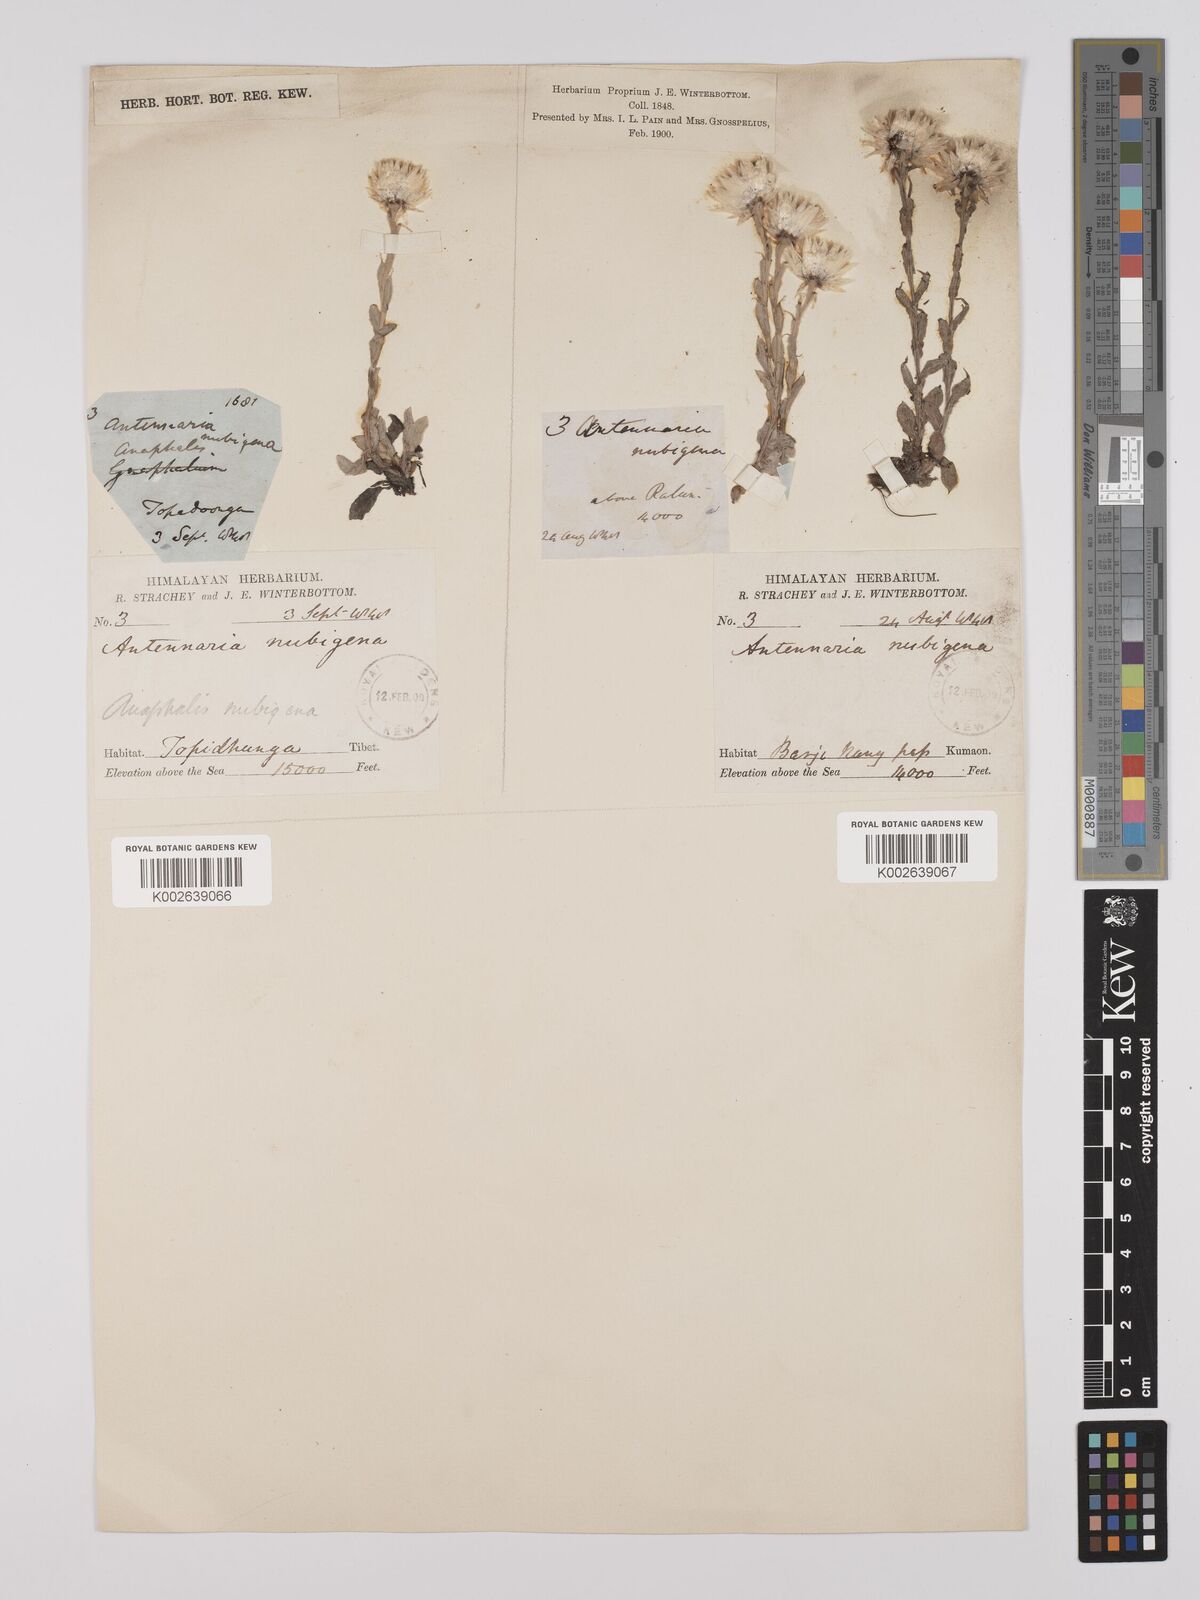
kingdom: Plantae
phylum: Tracheophyta
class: Magnoliopsida
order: Asterales
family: Asteraceae
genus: Anaphalis
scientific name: Anaphalis nepalensis
